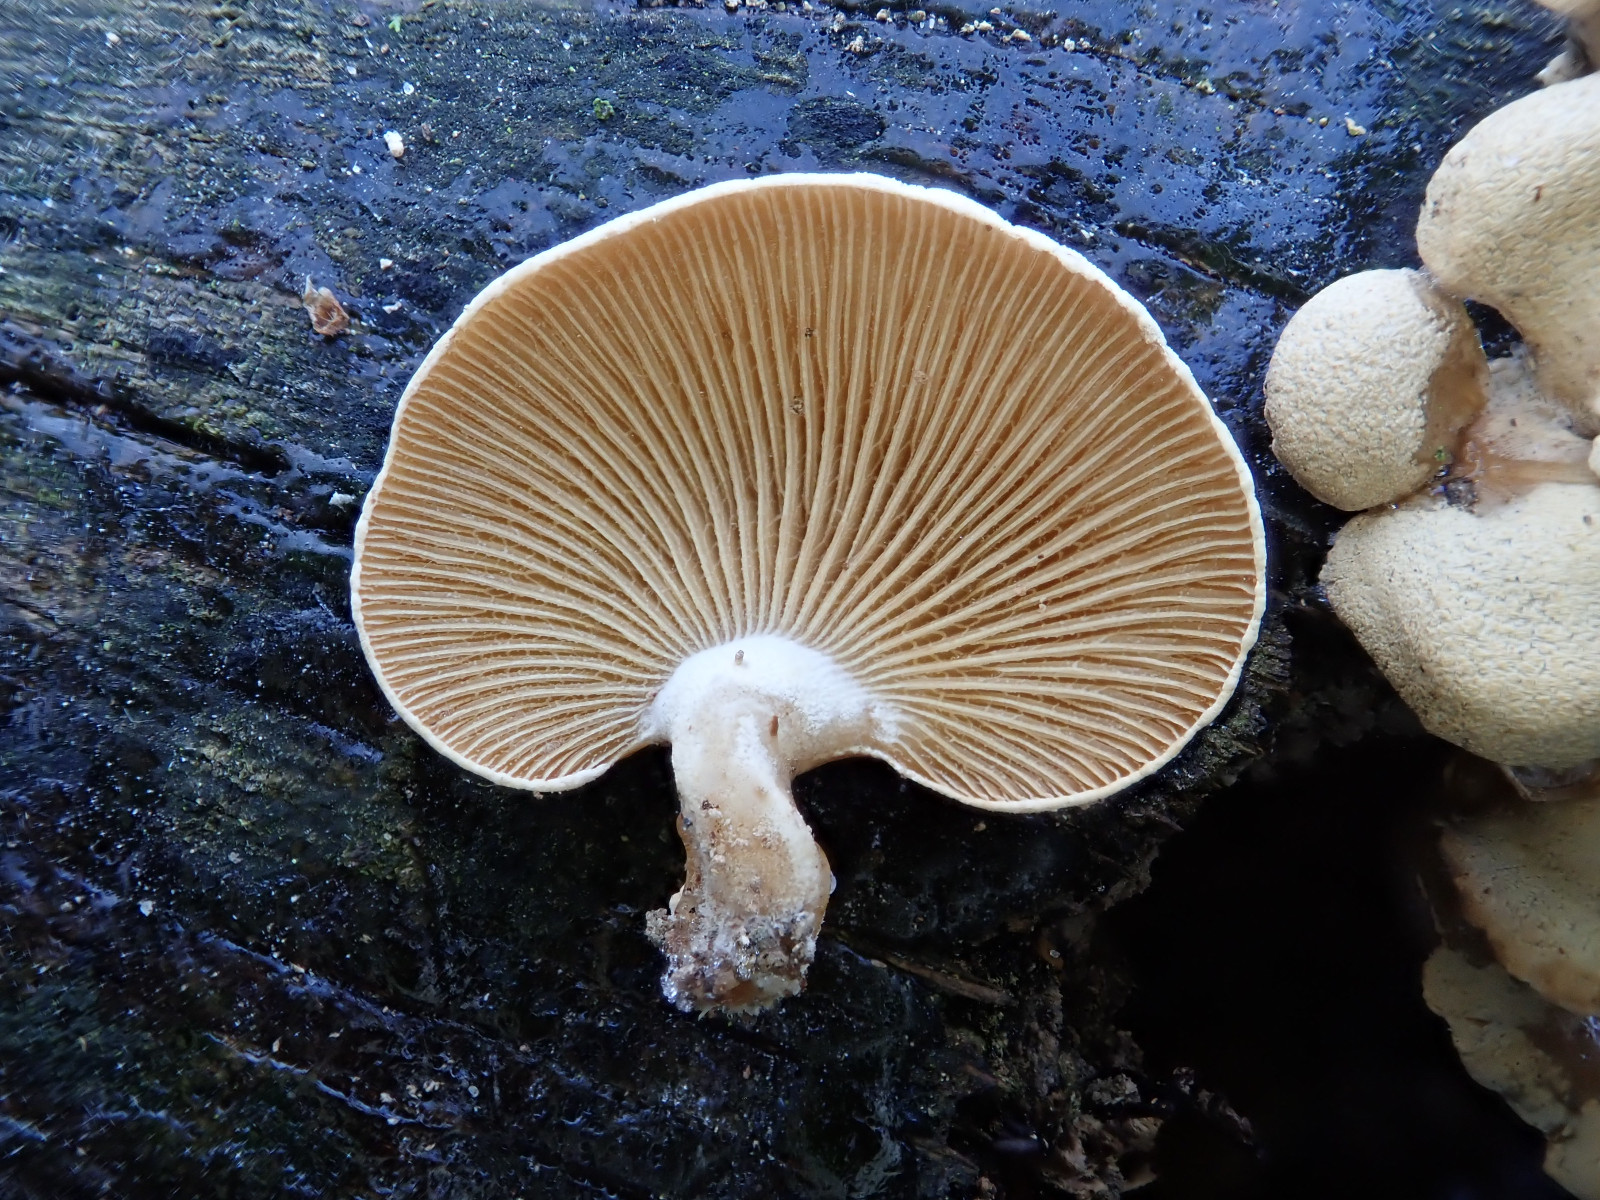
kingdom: Fungi
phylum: Basidiomycota
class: Agaricomycetes
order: Agaricales
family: Mycenaceae
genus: Panellus
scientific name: Panellus stipticus
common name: kliddet epaulethat
